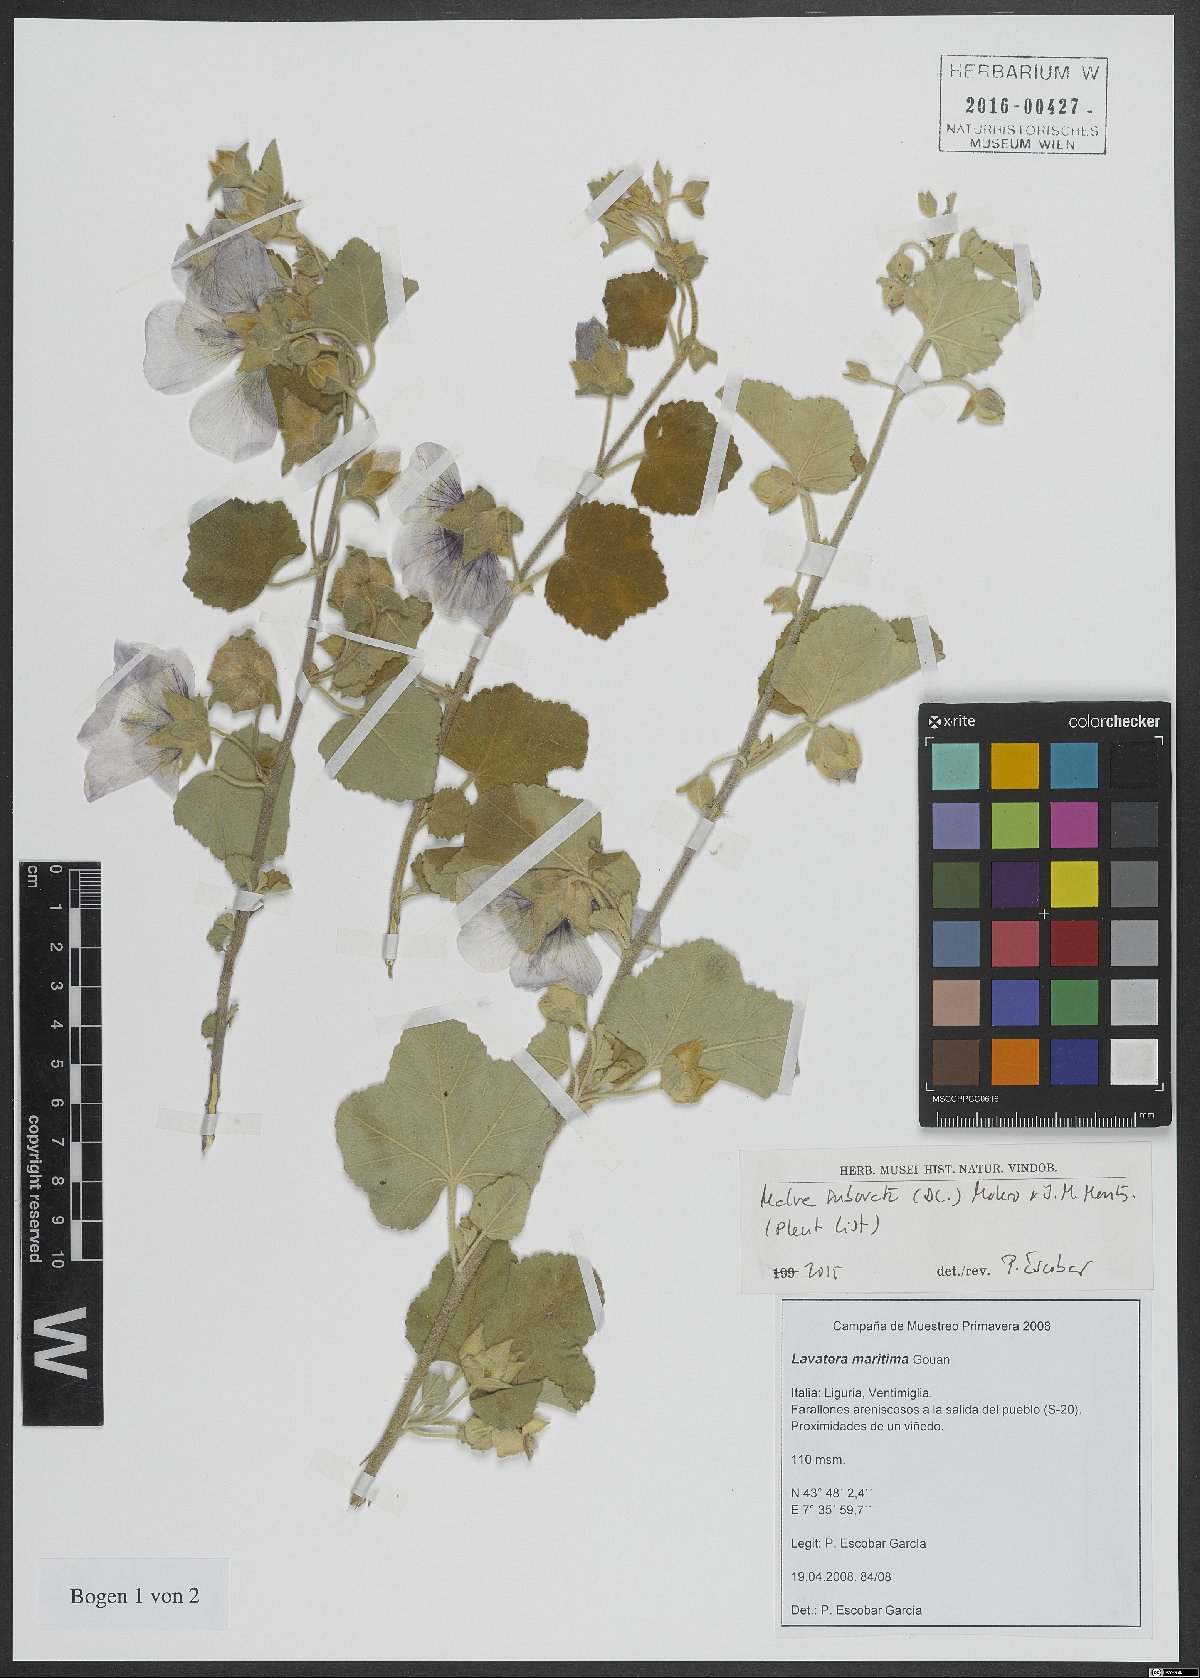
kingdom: Plantae
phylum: Tracheophyta
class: Magnoliopsida
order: Malvales
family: Malvaceae
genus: Malva
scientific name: Malva subovata
